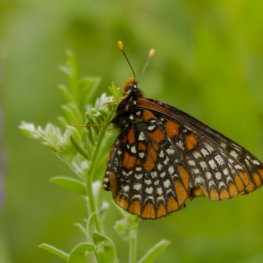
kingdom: Animalia
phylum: Arthropoda
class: Insecta
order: Lepidoptera
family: Nymphalidae
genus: Euphydryas
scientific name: Euphydryas phaeton
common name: Baltimore Checkerspot
